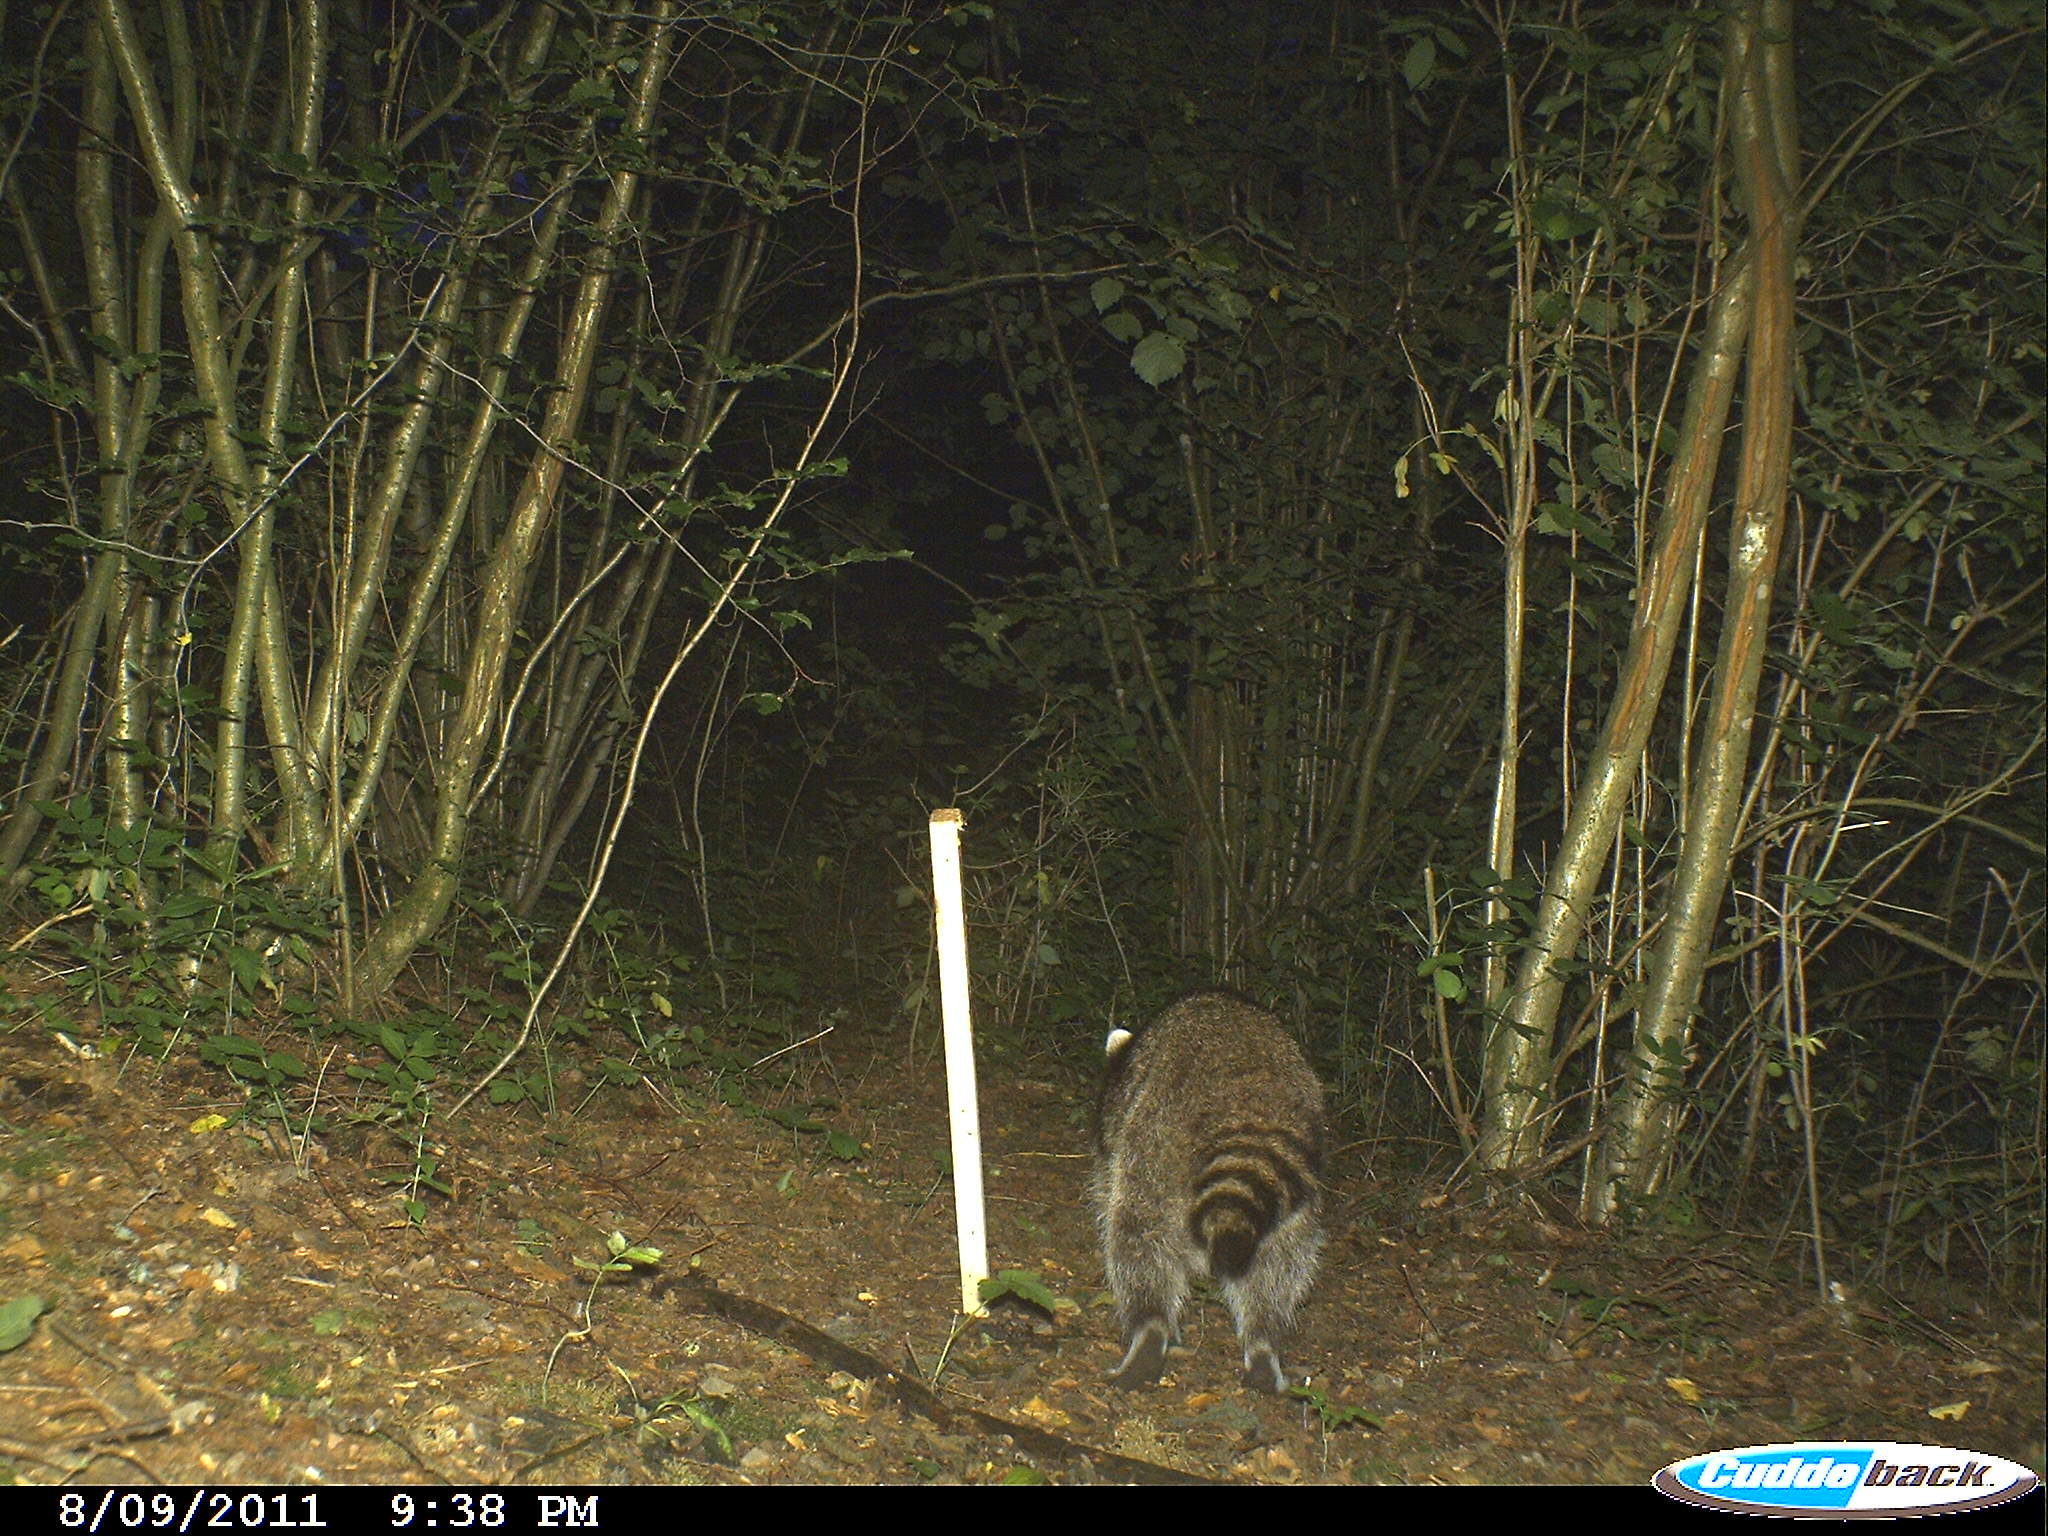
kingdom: Animalia
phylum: Chordata
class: Mammalia
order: Carnivora
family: Procyonidae
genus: Procyon
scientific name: Procyon lotor
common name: Raccoon
